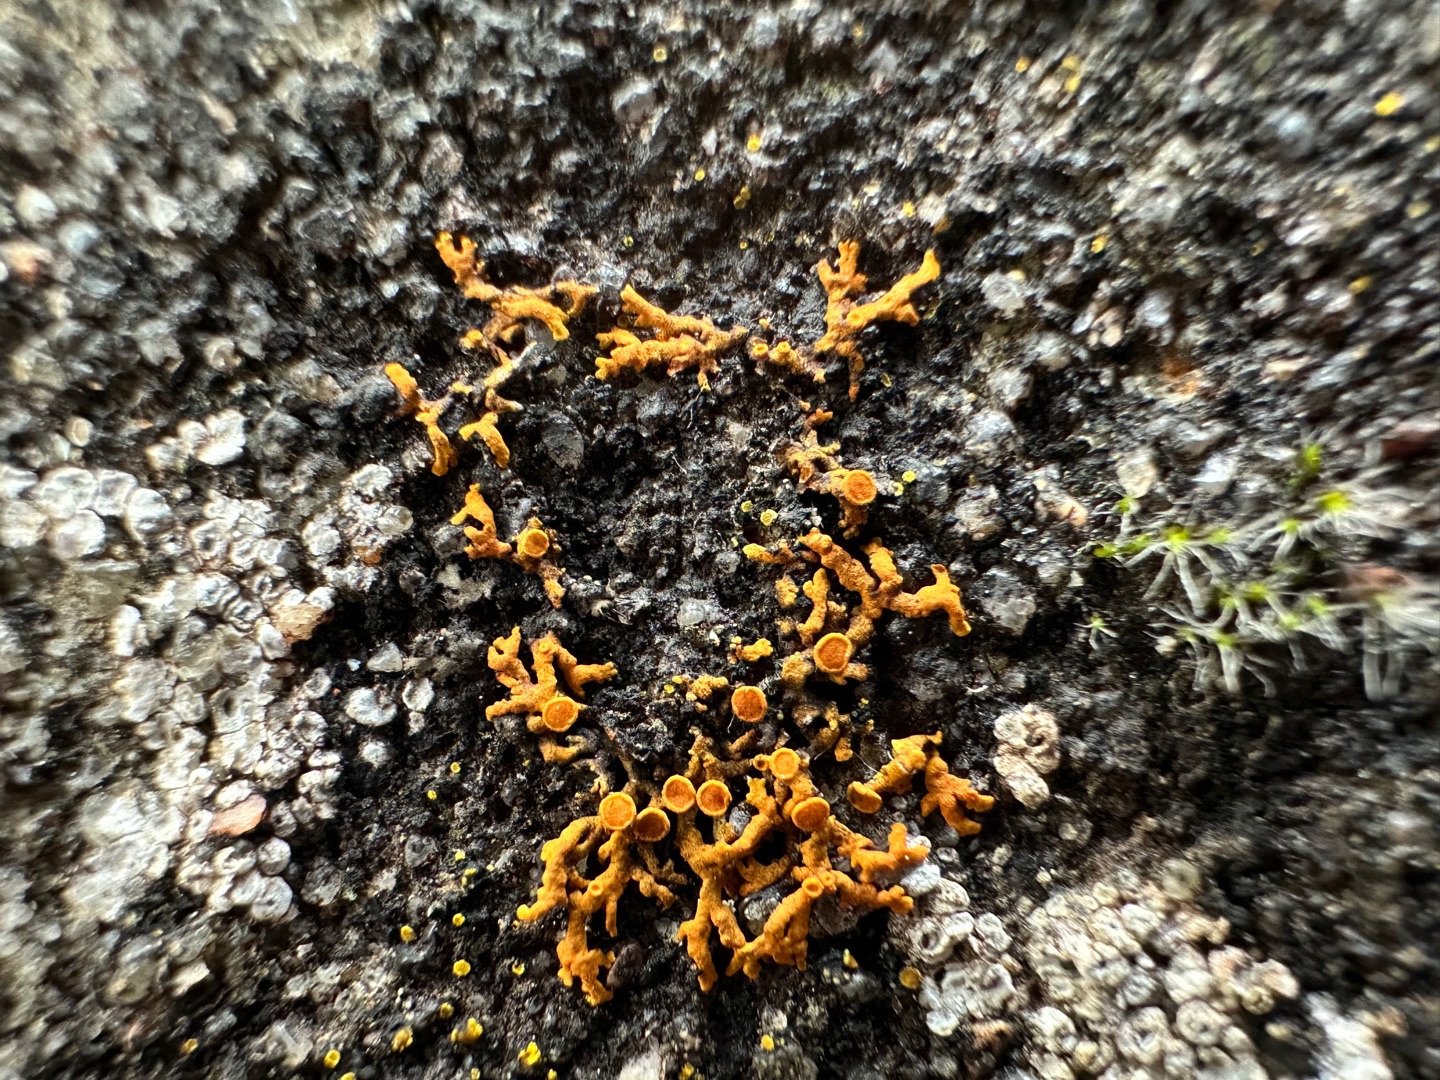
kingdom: Fungi
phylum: Ascomycota
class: Lecanoromycetes
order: Teloschistales
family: Teloschistaceae
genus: Xanthoria
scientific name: Xanthoria elegans
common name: Fjeld-væggelav
